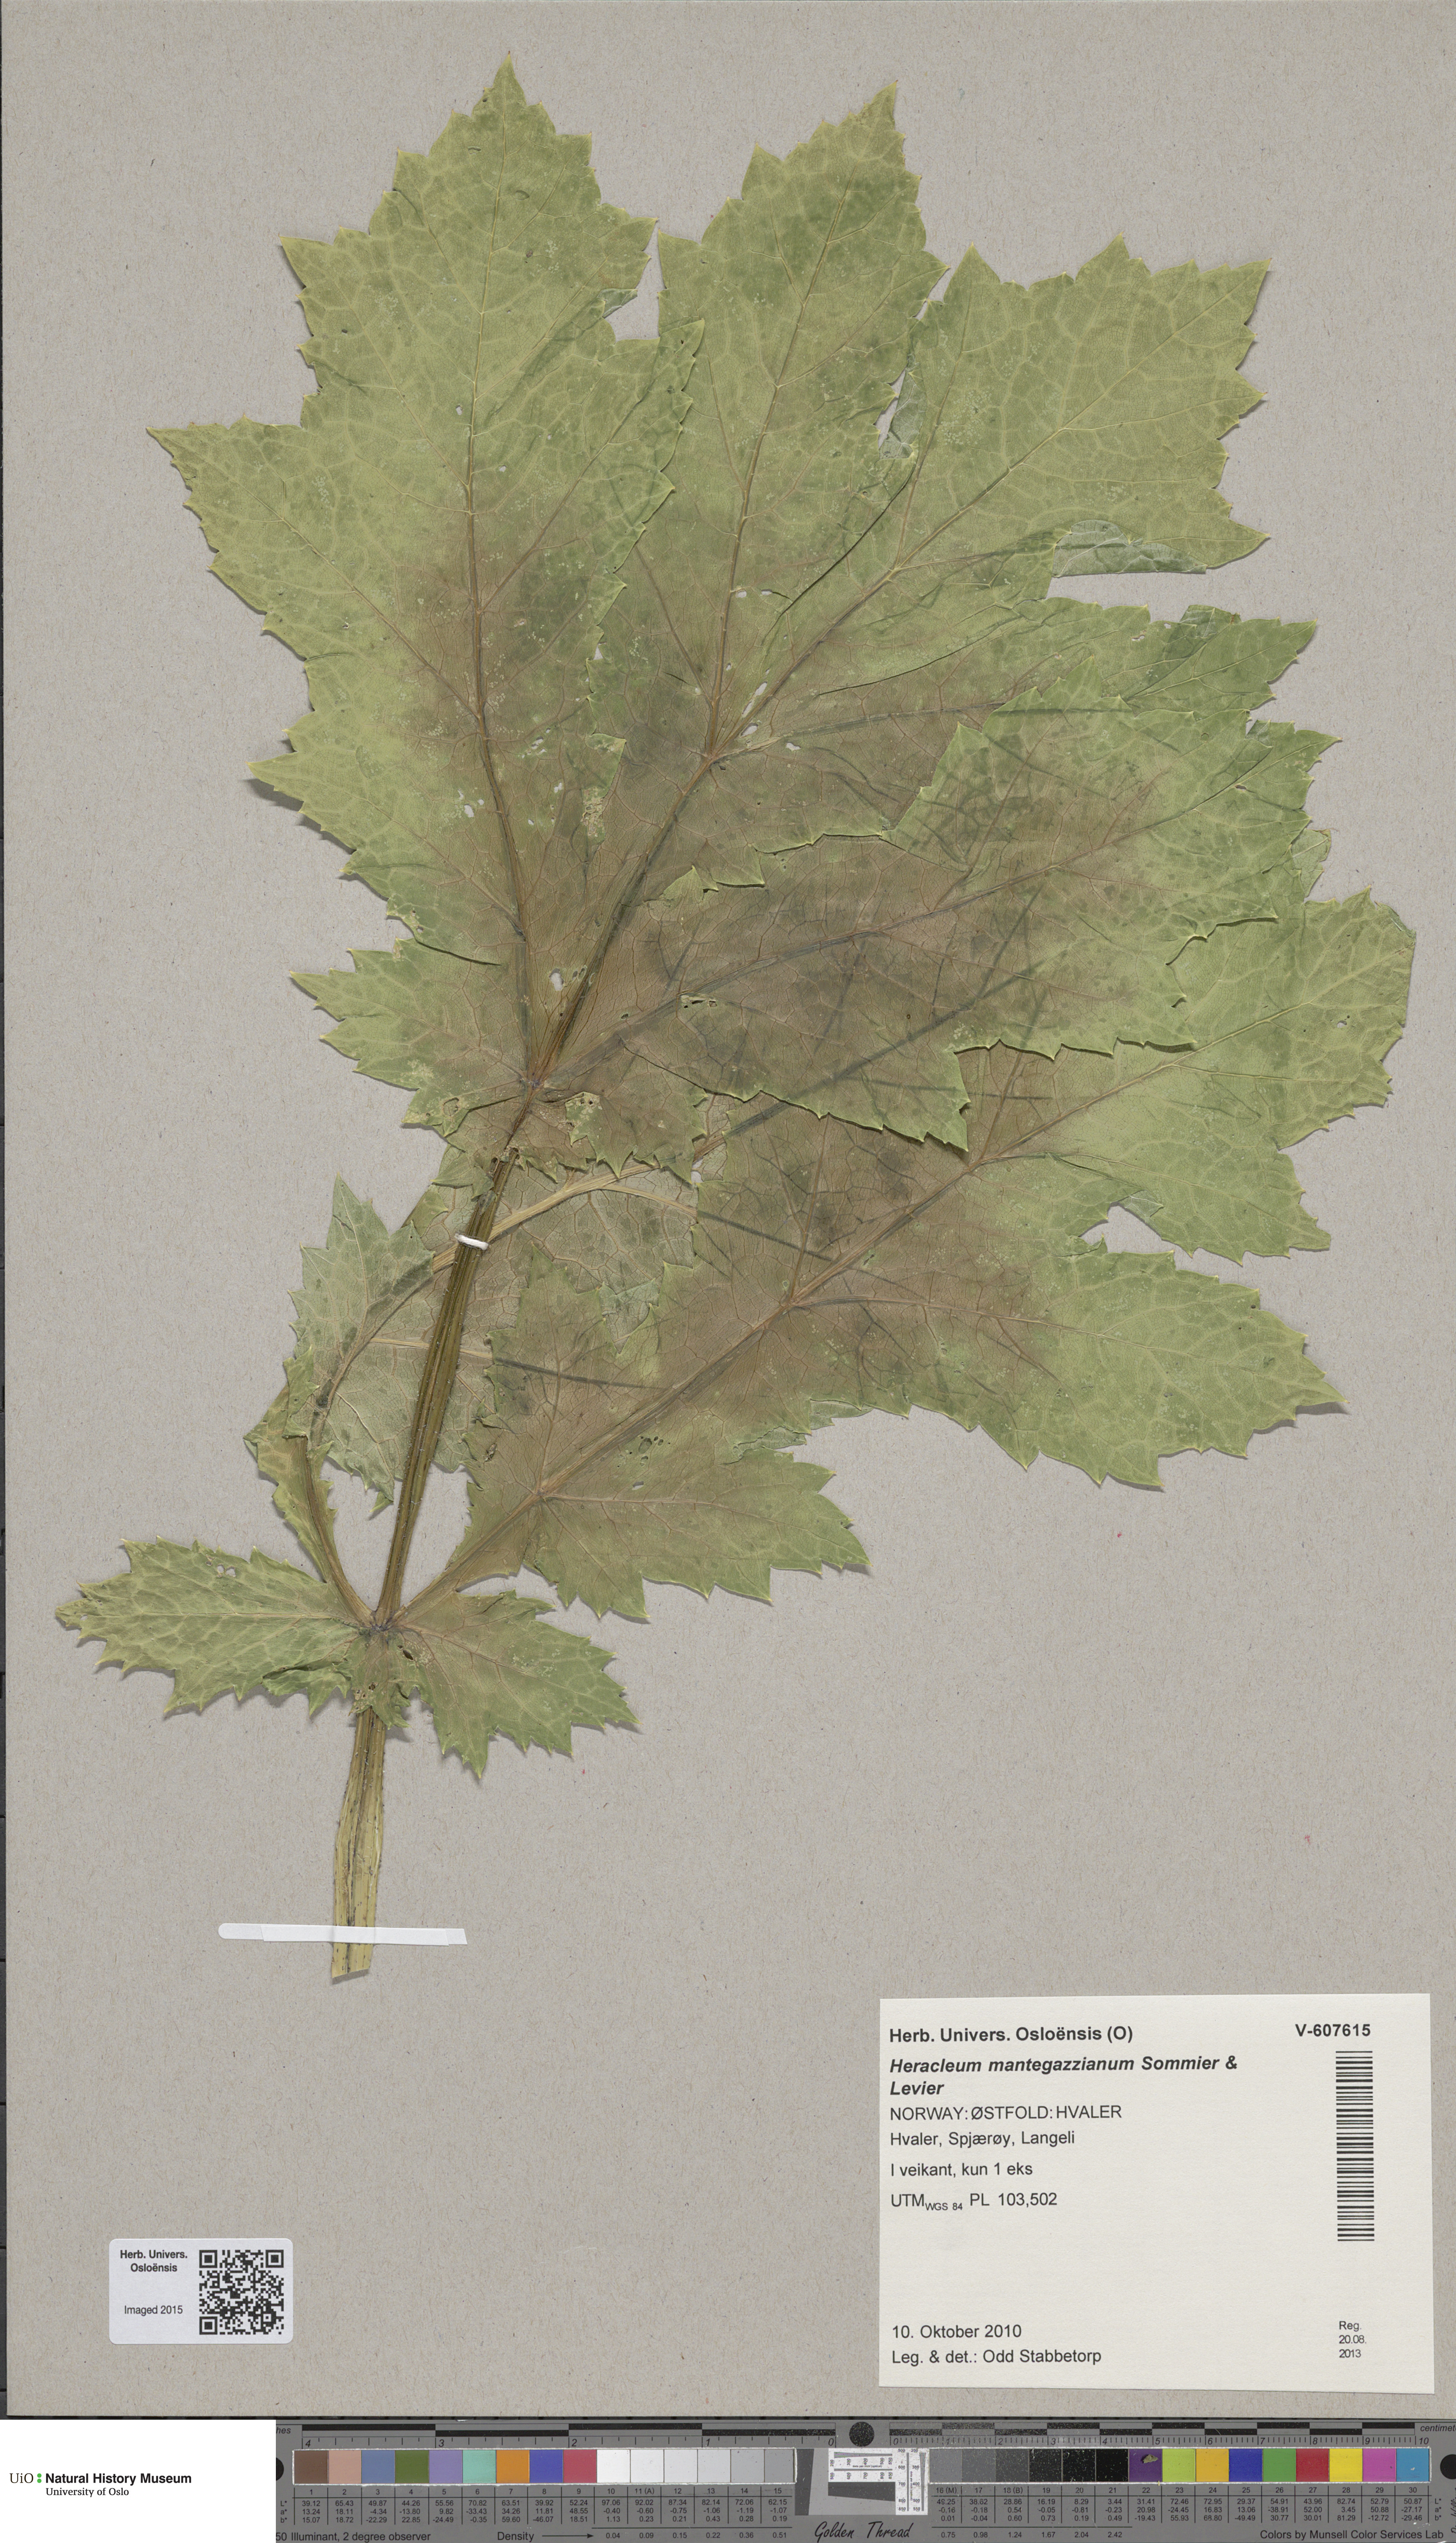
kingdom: Plantae
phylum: Tracheophyta
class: Magnoliopsida
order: Apiales
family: Apiaceae
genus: Heracleum
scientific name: Heracleum mantegazzianum
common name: Giant hogweed
